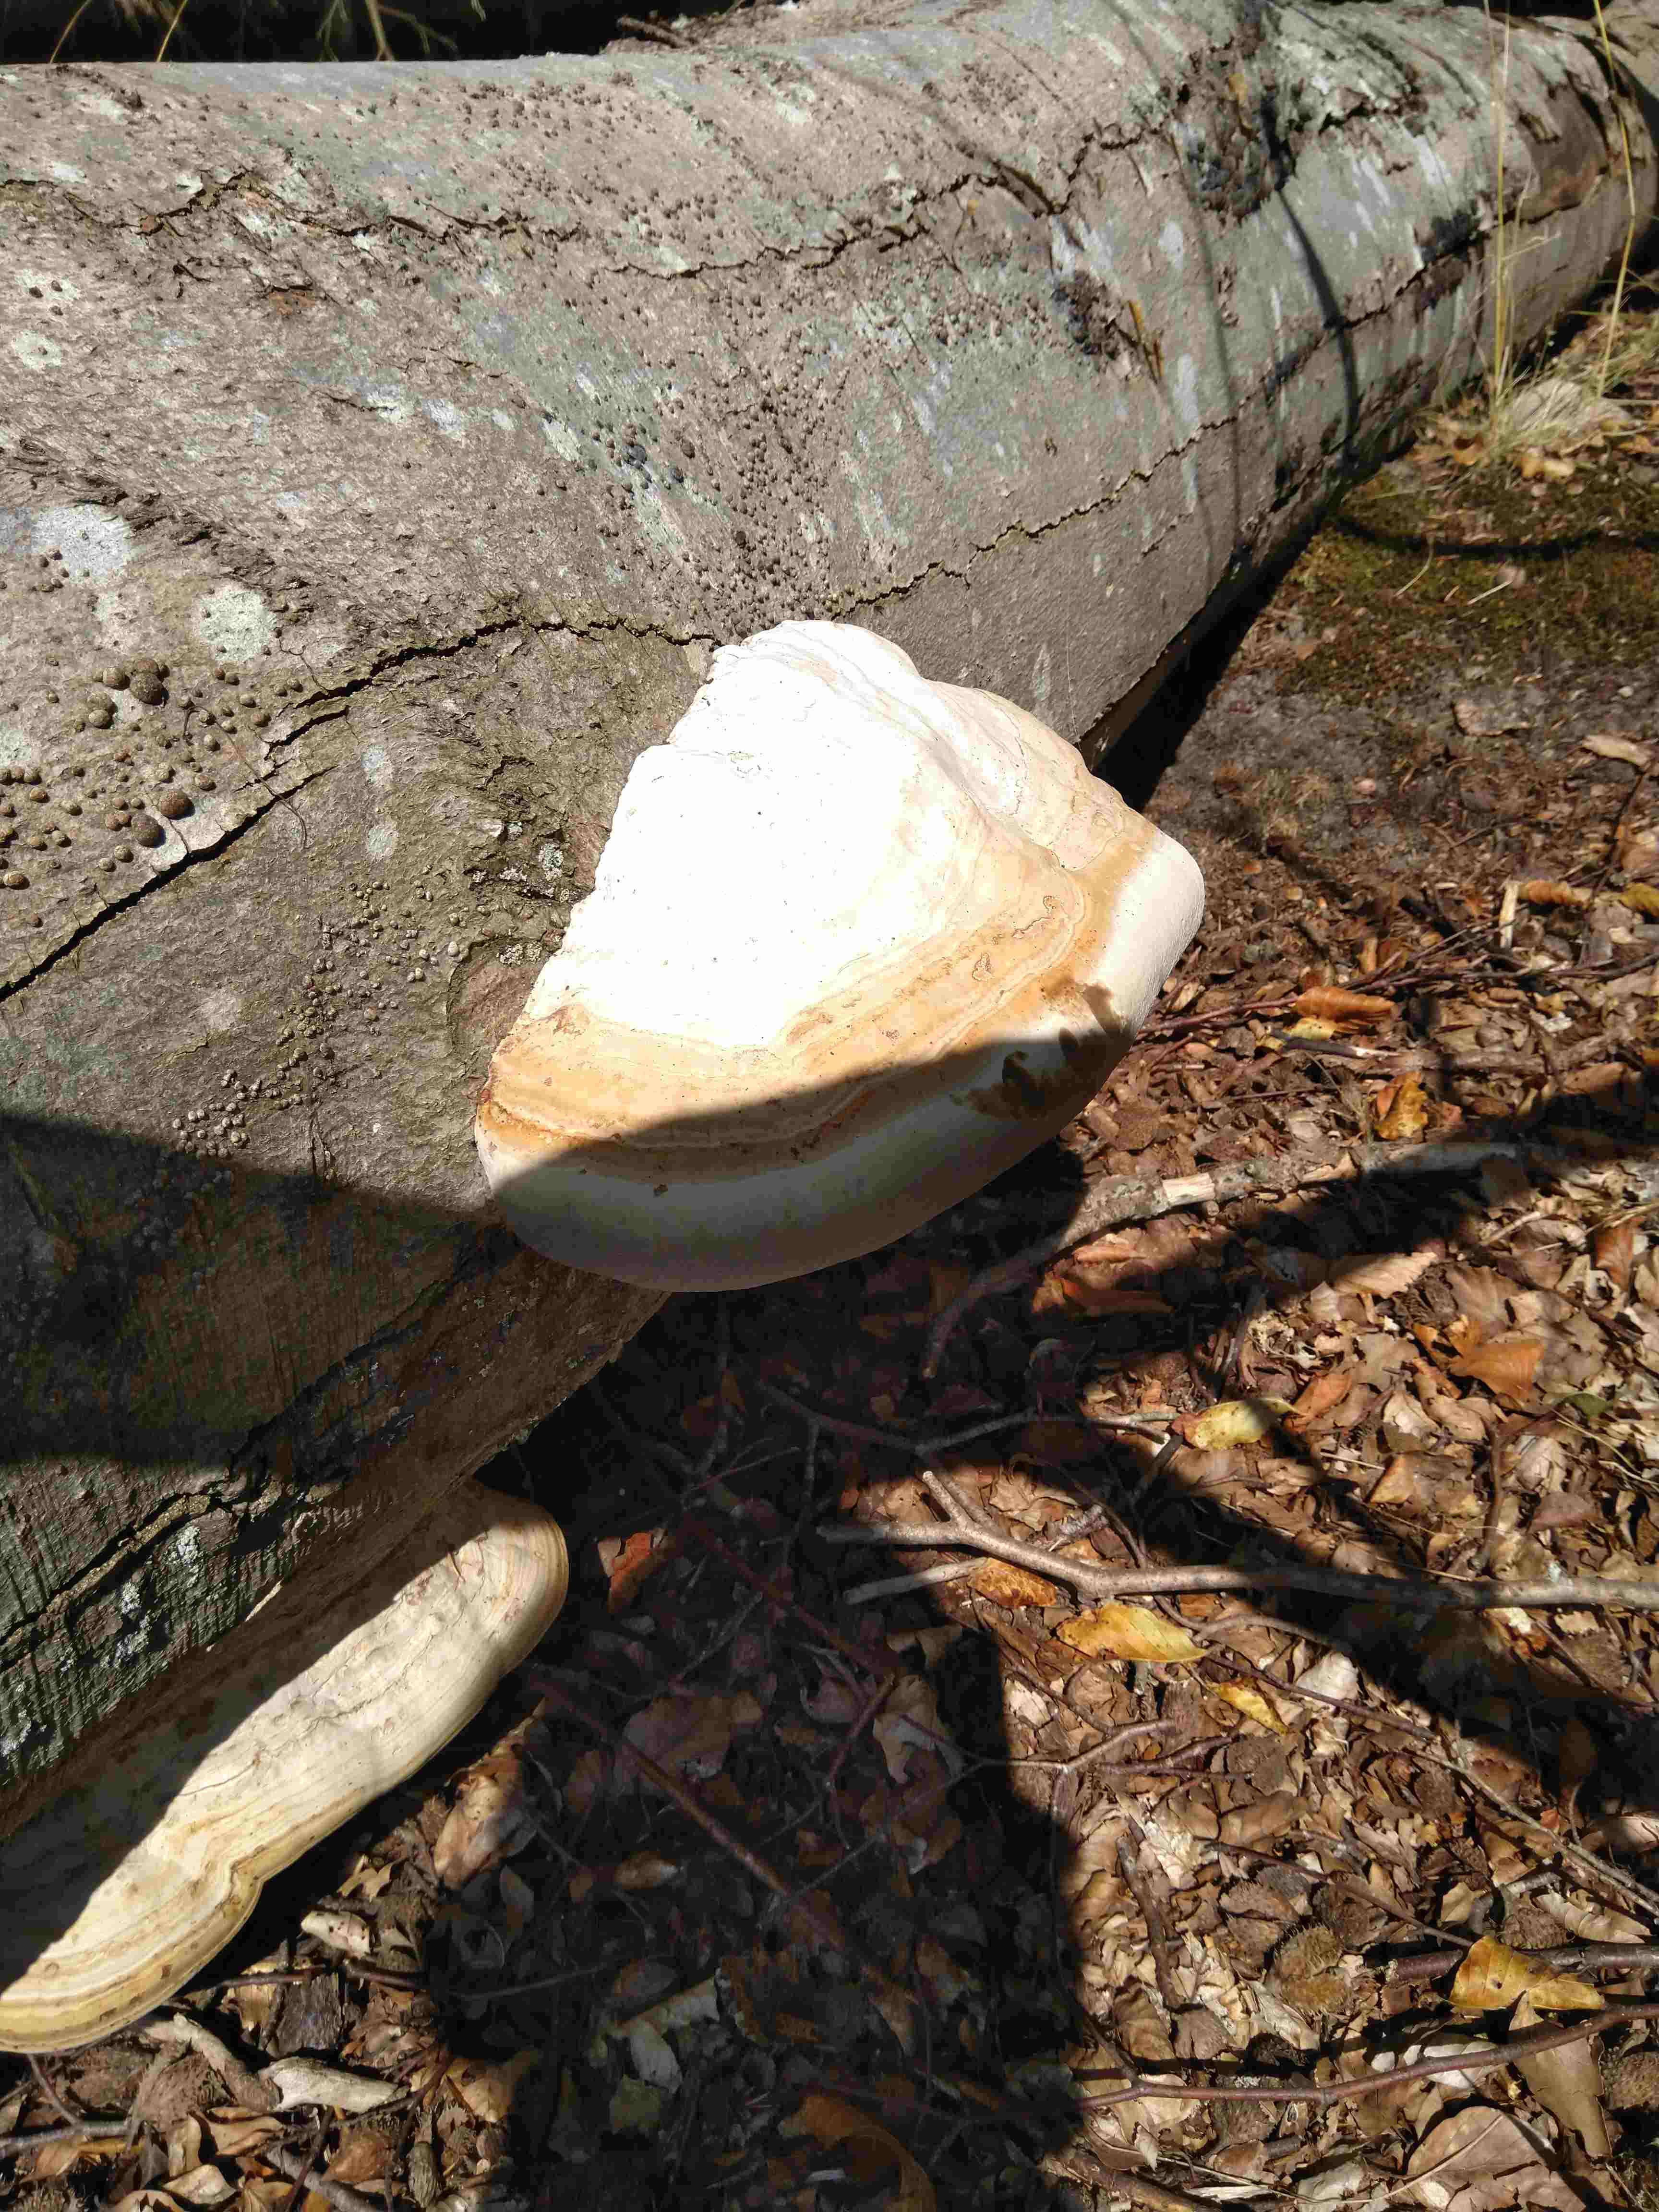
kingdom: Fungi
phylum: Basidiomycota
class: Agaricomycetes
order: Polyporales
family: Polyporaceae
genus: Fomes
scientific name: Fomes fomentarius
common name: tøndersvamp
